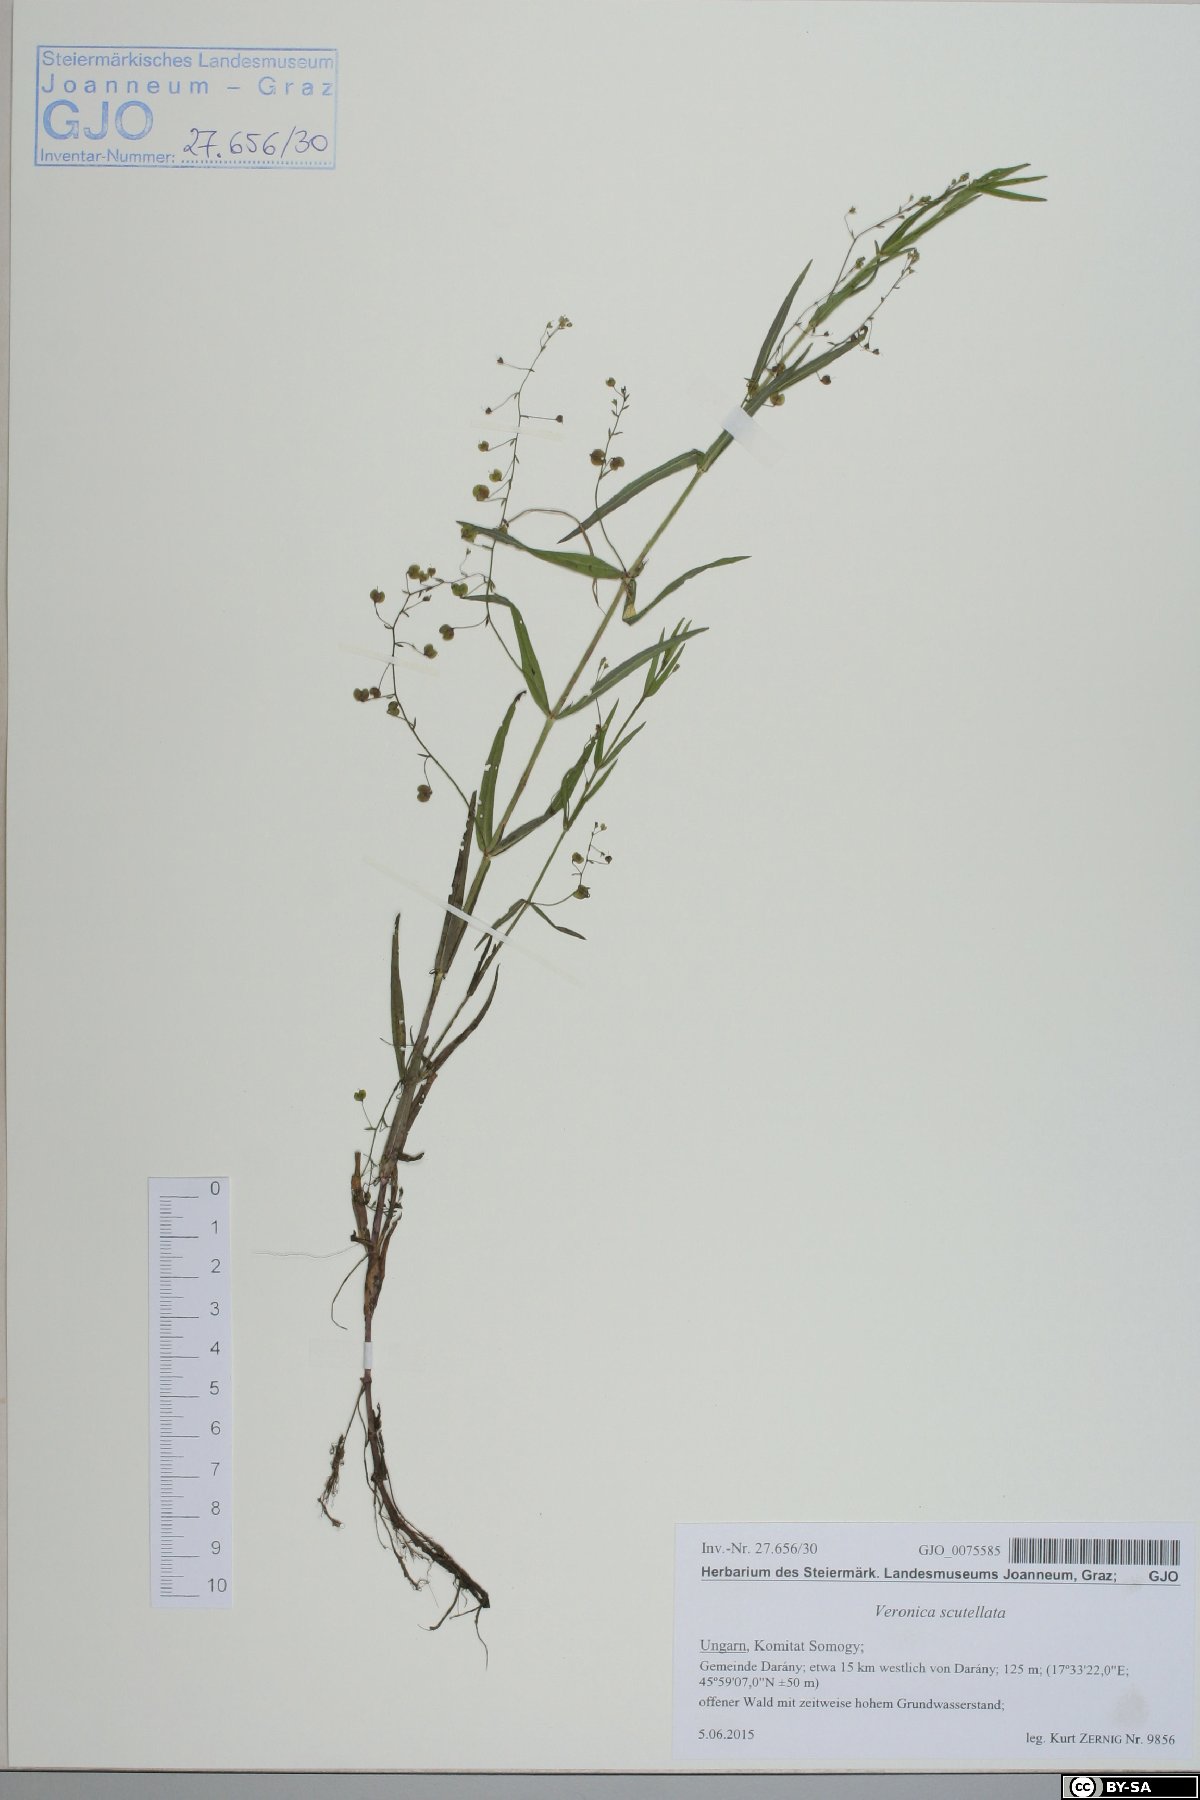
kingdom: Plantae
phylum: Tracheophyta
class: Magnoliopsida
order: Lamiales
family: Plantaginaceae
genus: Veronica
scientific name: Veronica scutellata
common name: Marsh speedwell
